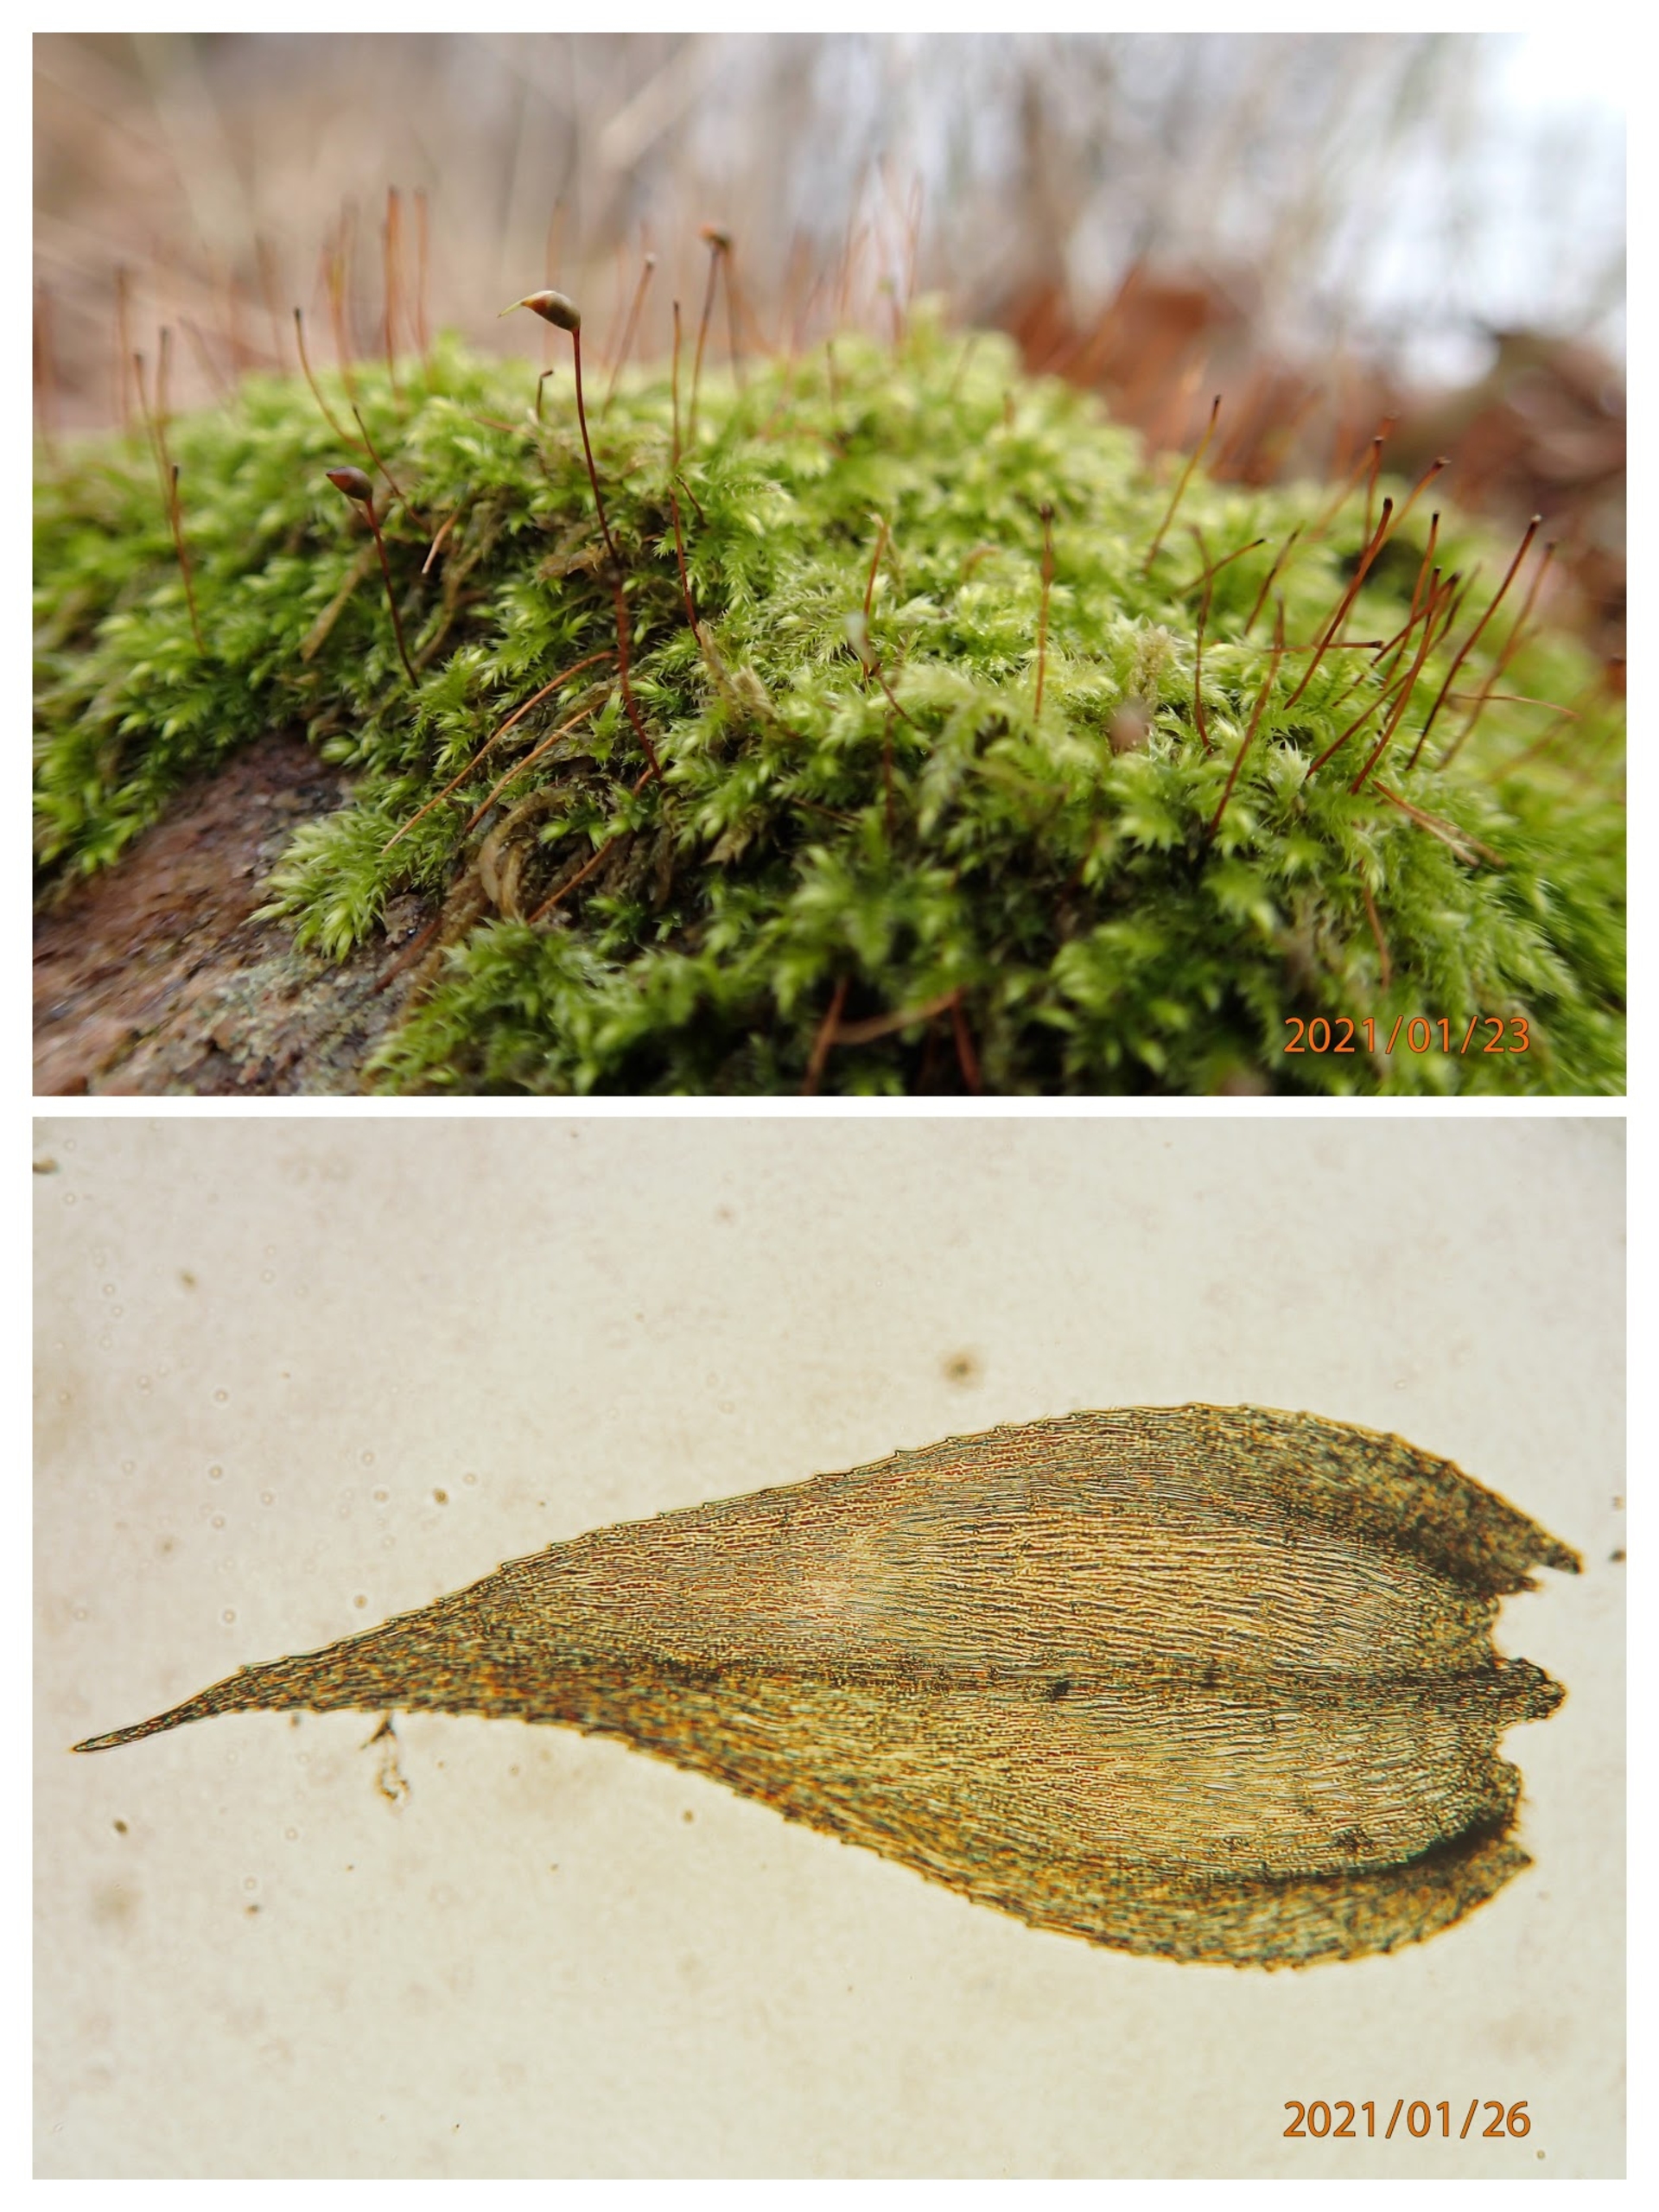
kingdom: Plantae
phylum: Bryophyta
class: Bryopsida
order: Hypnales
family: Brachytheciaceae
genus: Brachytheciastrum
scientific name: Brachytheciastrum velutinum
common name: Fløjls-kortkapsel
